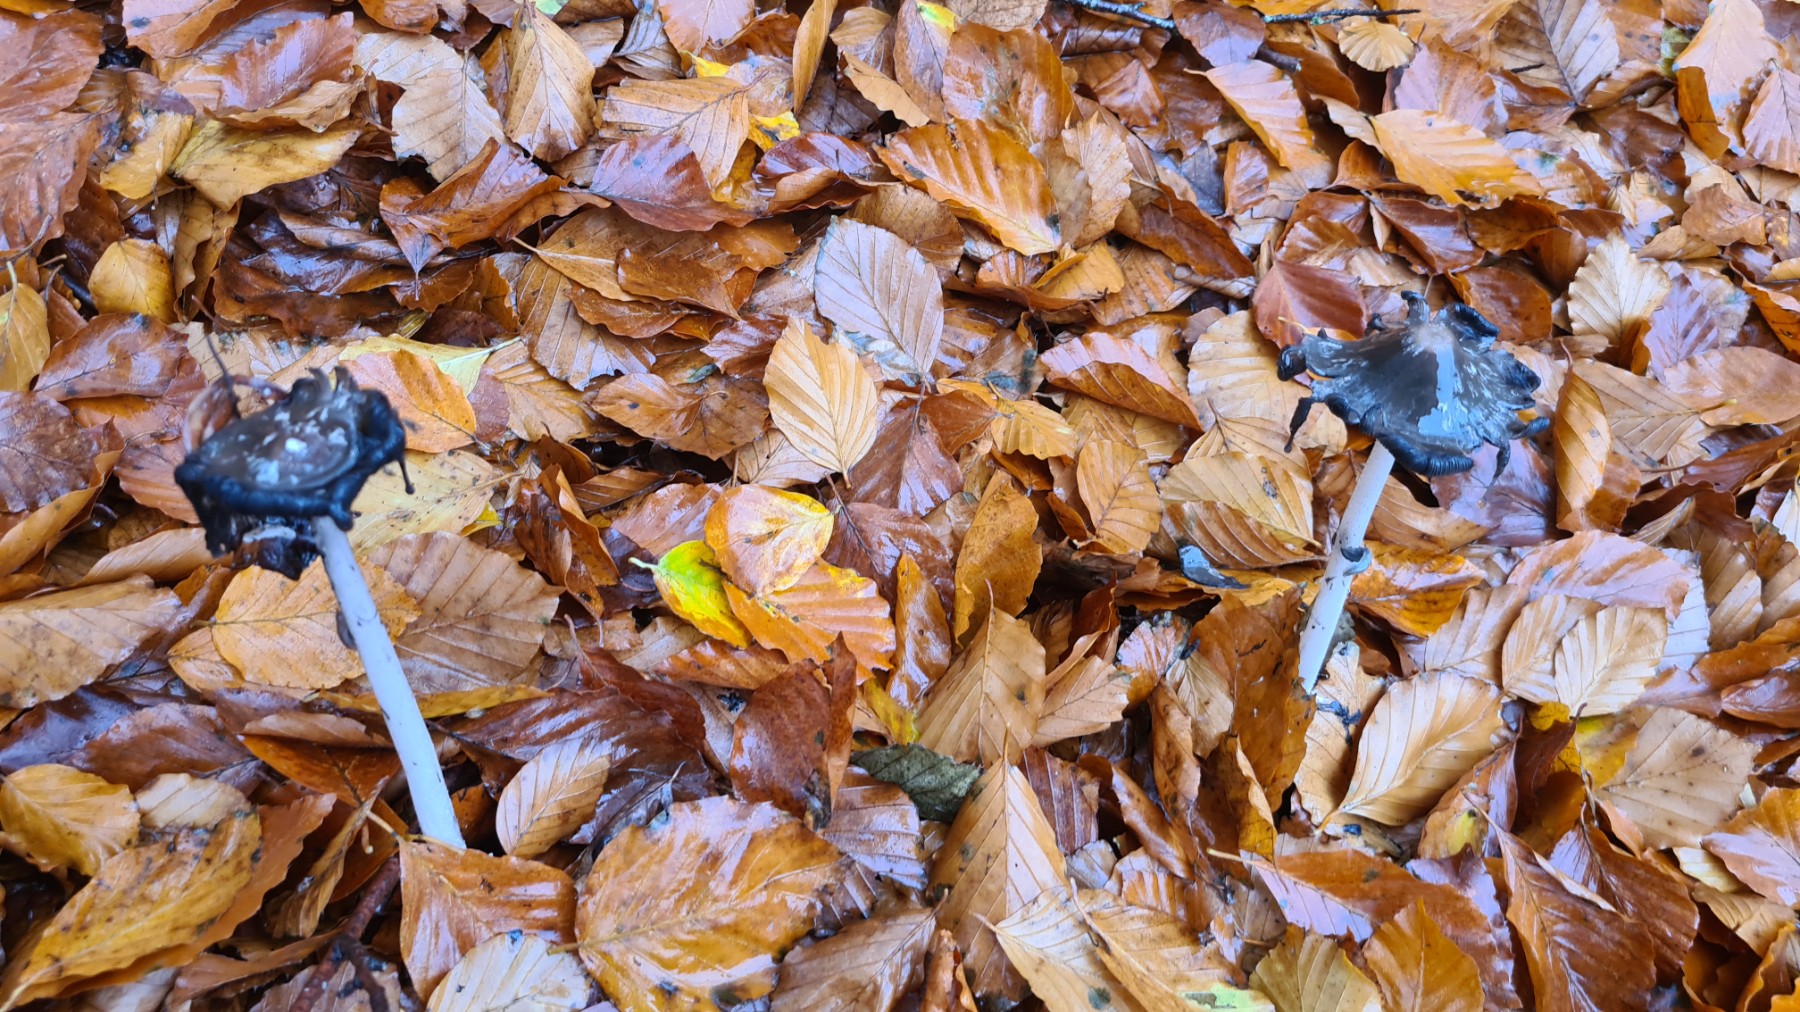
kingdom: Fungi
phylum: Basidiomycota
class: Agaricomycetes
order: Agaricales
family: Psathyrellaceae
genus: Coprinopsis
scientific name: Coprinopsis picacea
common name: skade-blækhat
